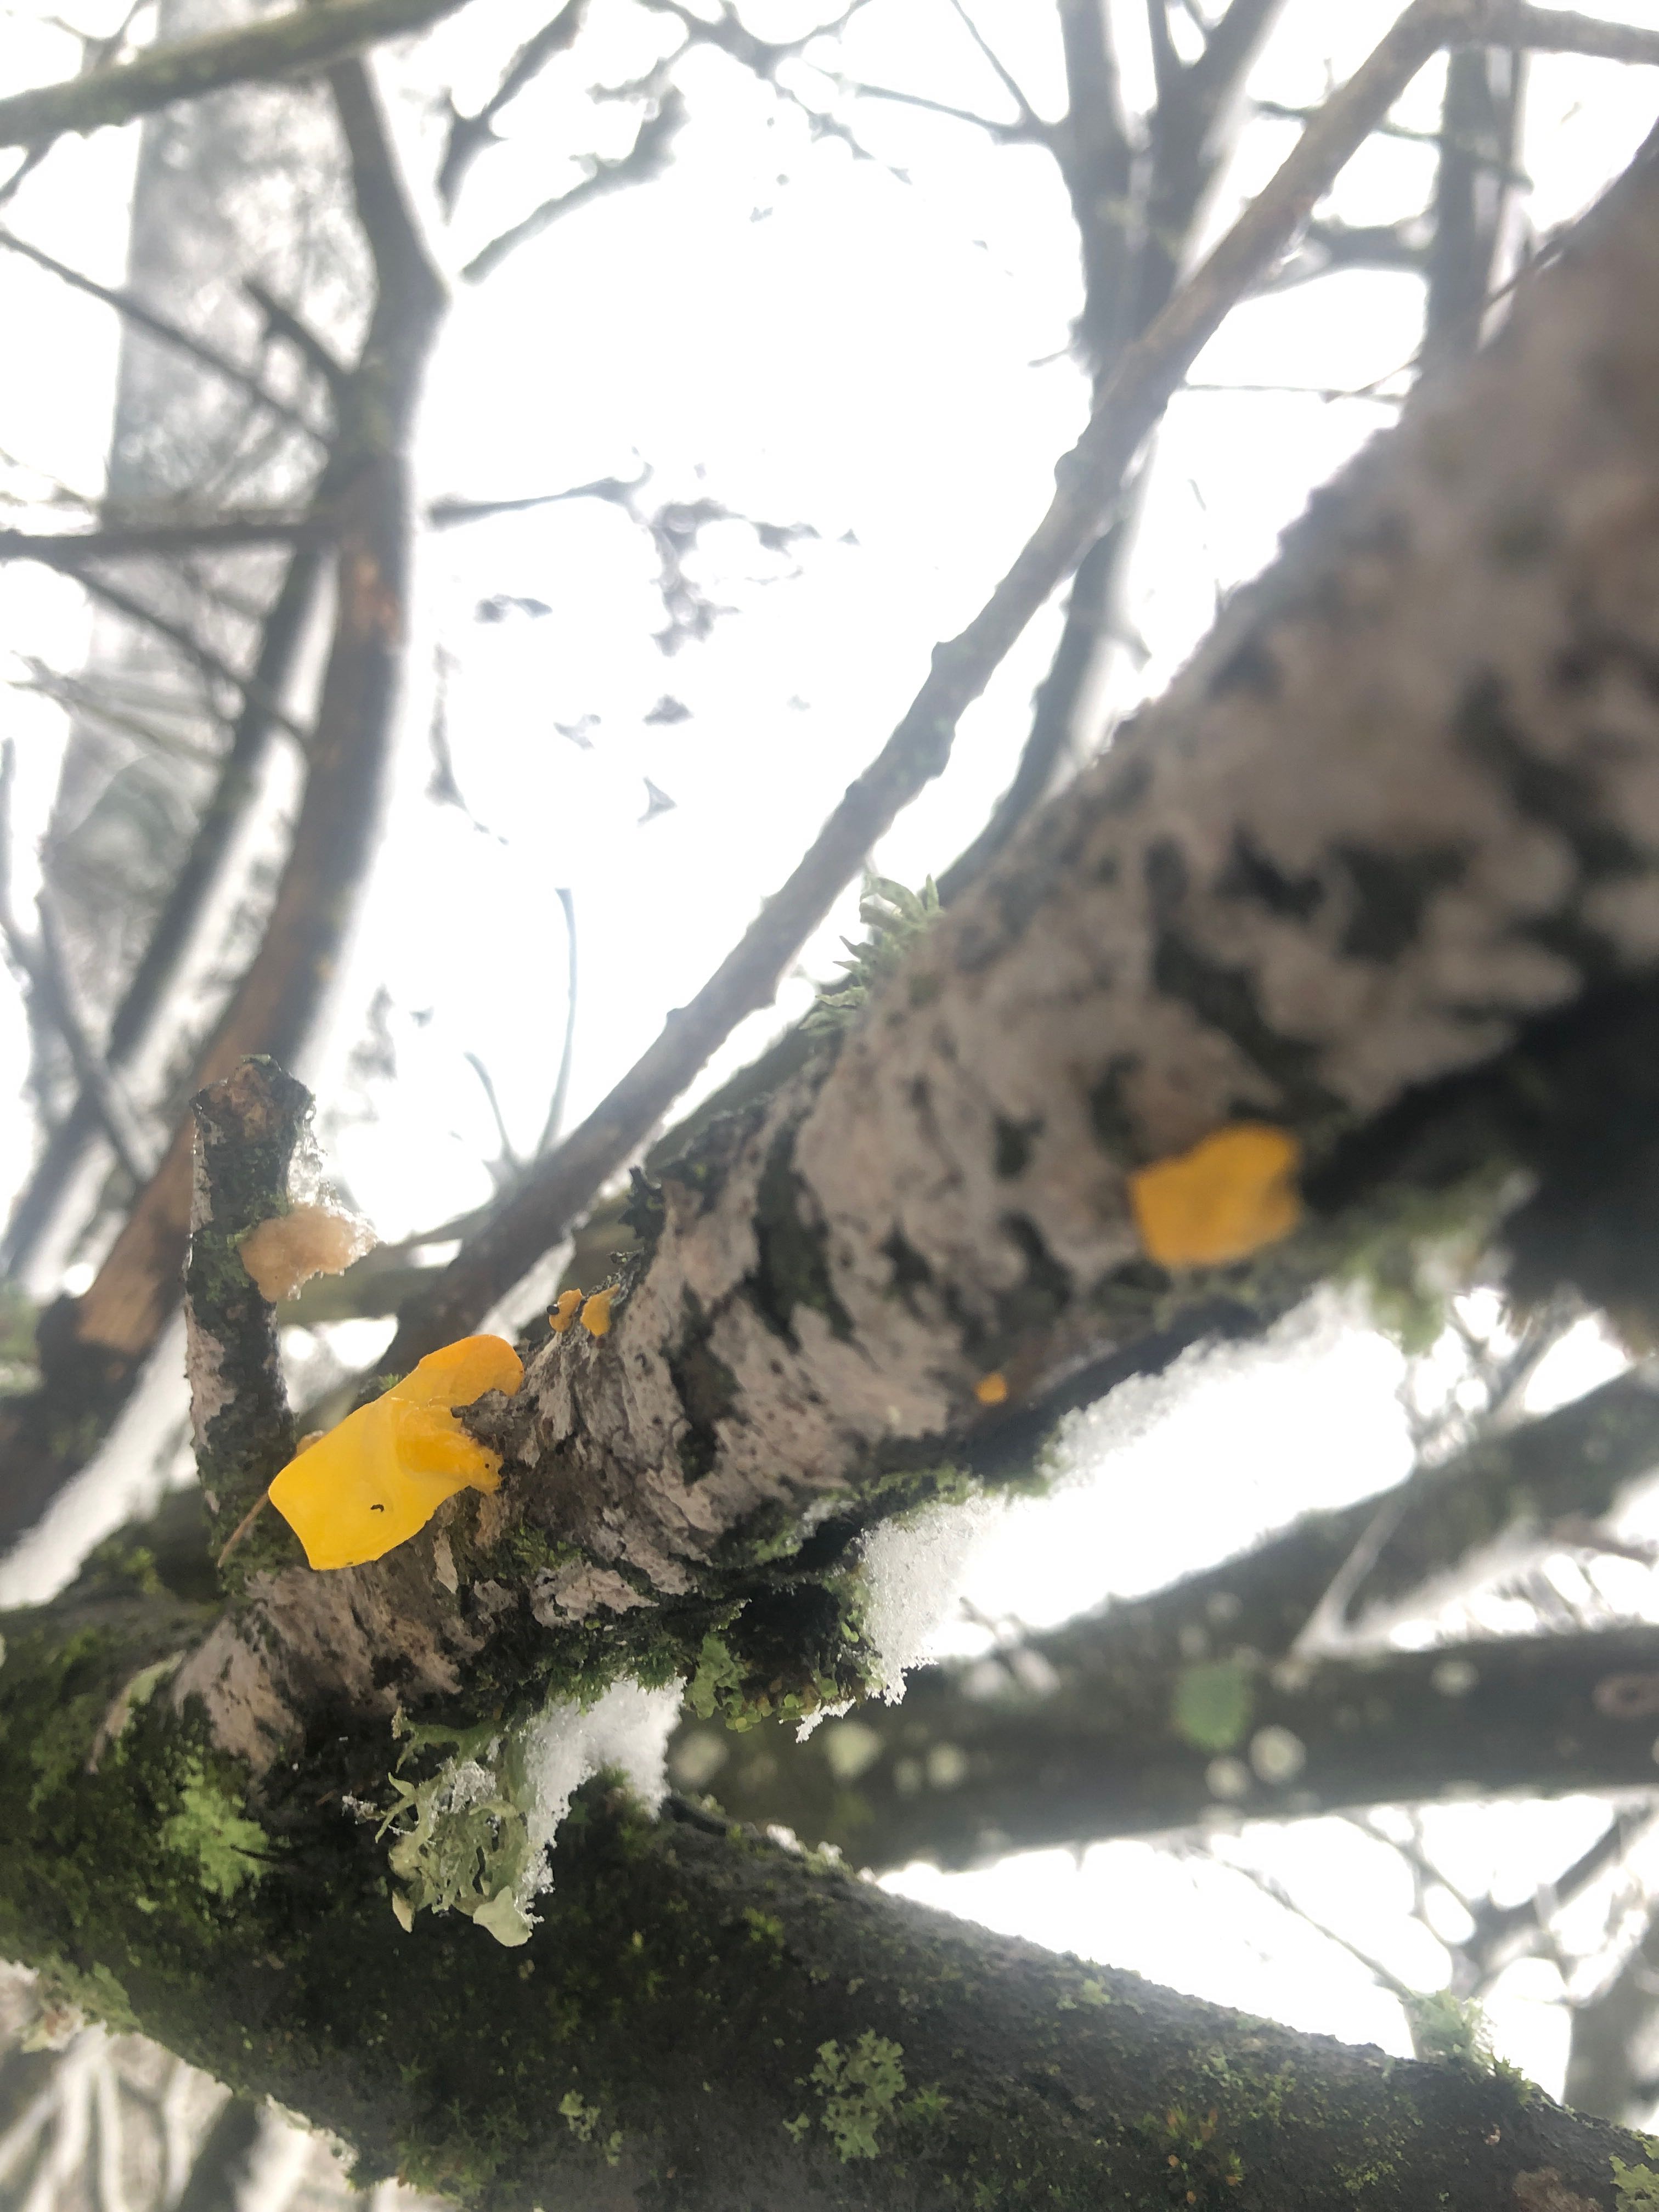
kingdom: Fungi
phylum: Basidiomycota
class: Tremellomycetes
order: Tremellales
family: Tremellaceae
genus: Tremella
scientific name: Tremella mesenterica
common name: gul bævresvamp
